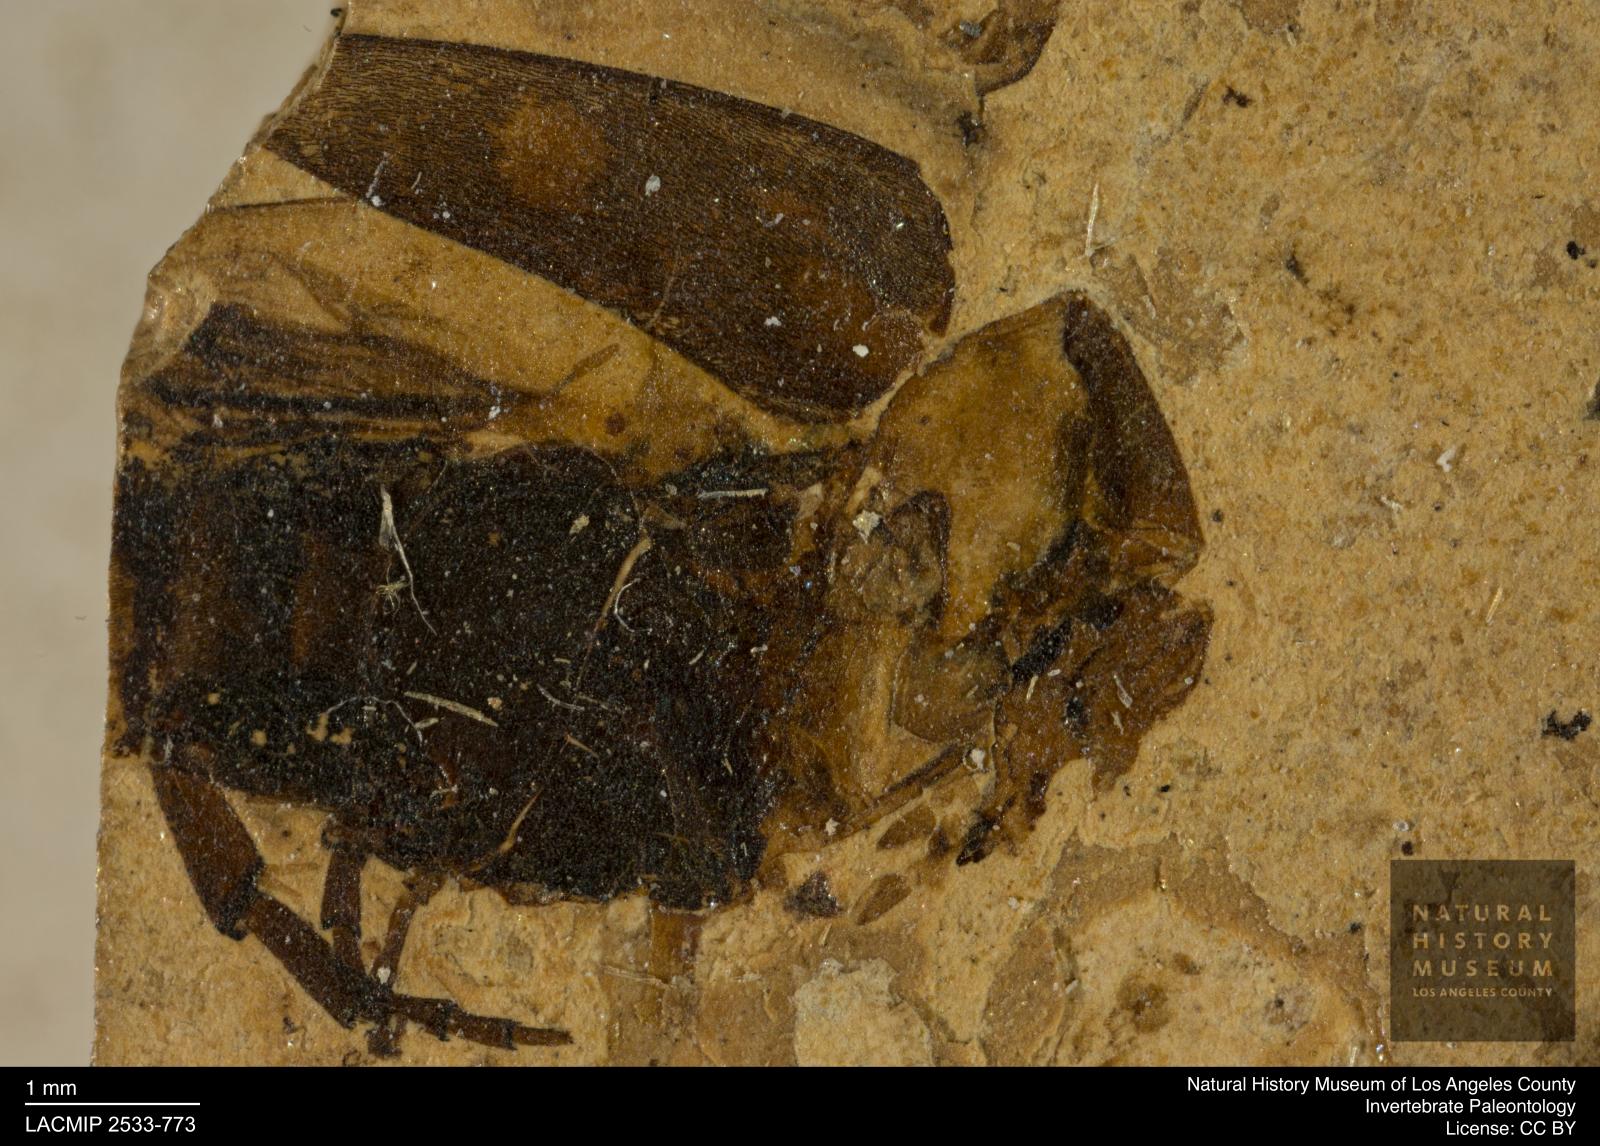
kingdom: Animalia
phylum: Arthropoda
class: Insecta
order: Coleoptera
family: Mordellidae
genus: Mordella
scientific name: Mordella nigrapilosa
